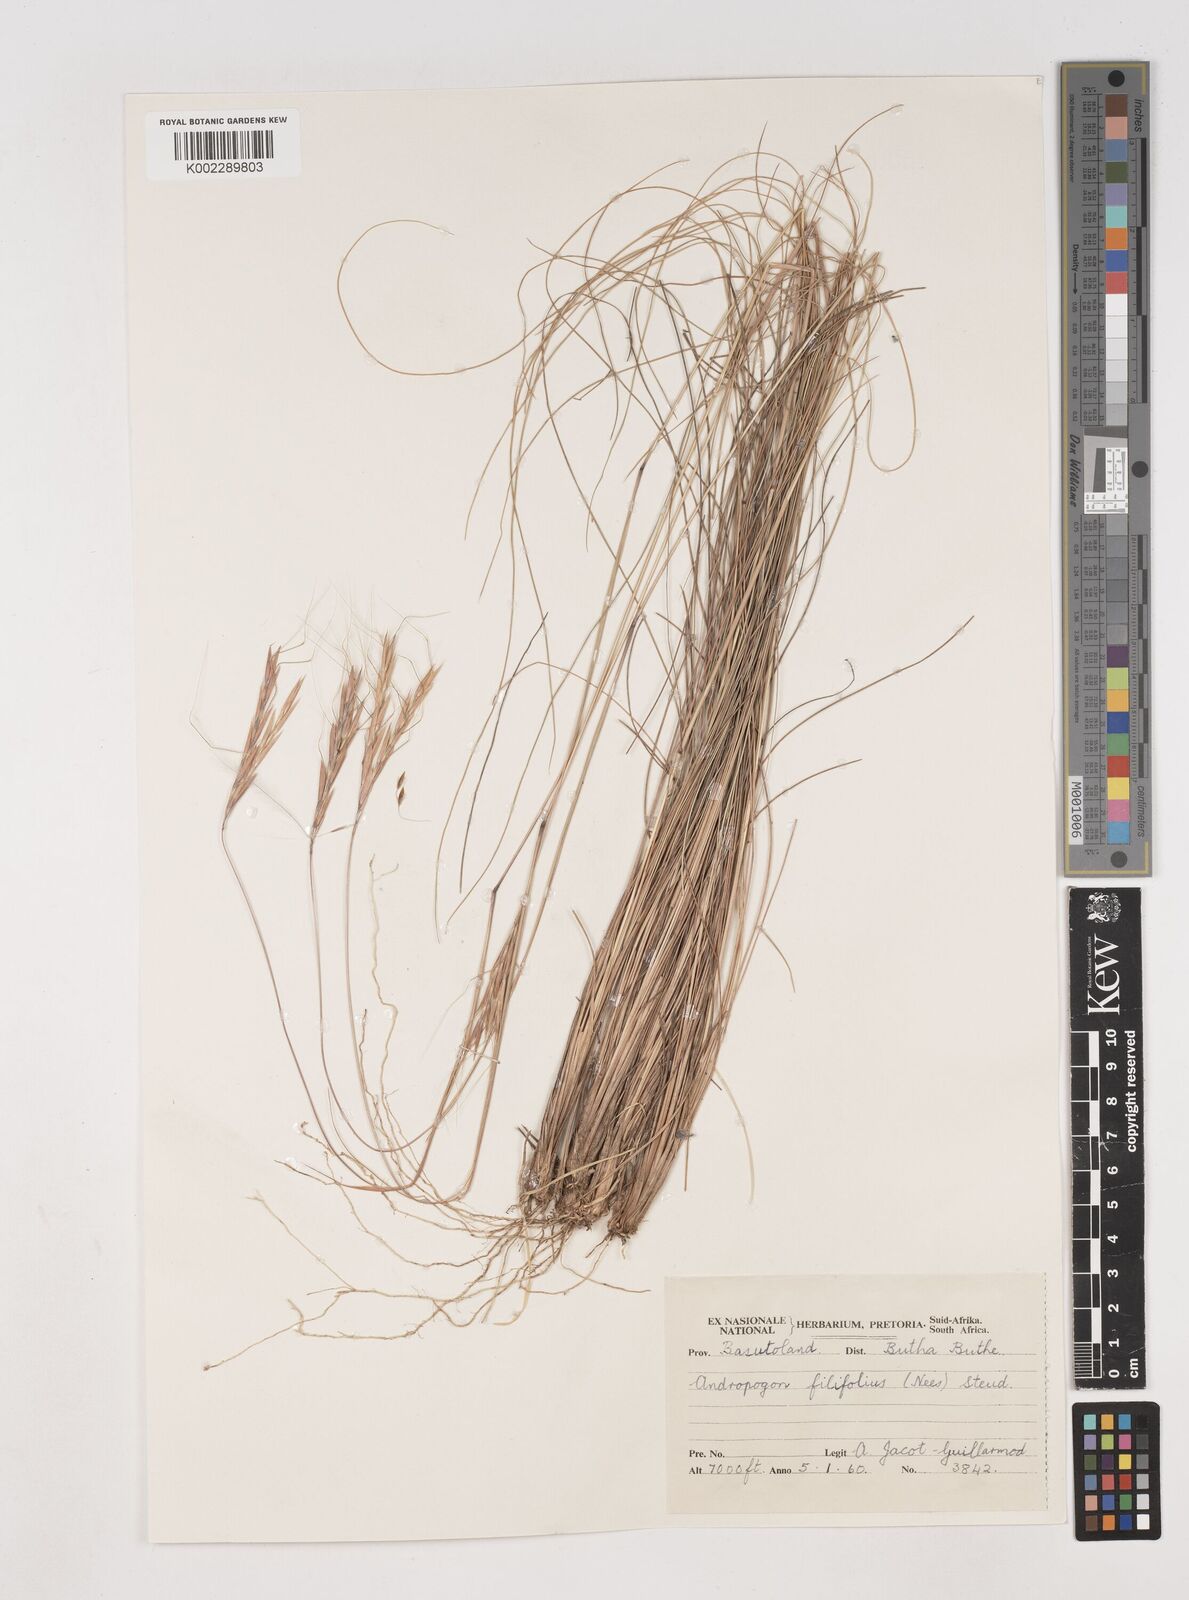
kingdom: Plantae
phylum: Tracheophyta
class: Liliopsida
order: Poales
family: Poaceae
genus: Diheteropogon
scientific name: Diheteropogon filifolius
